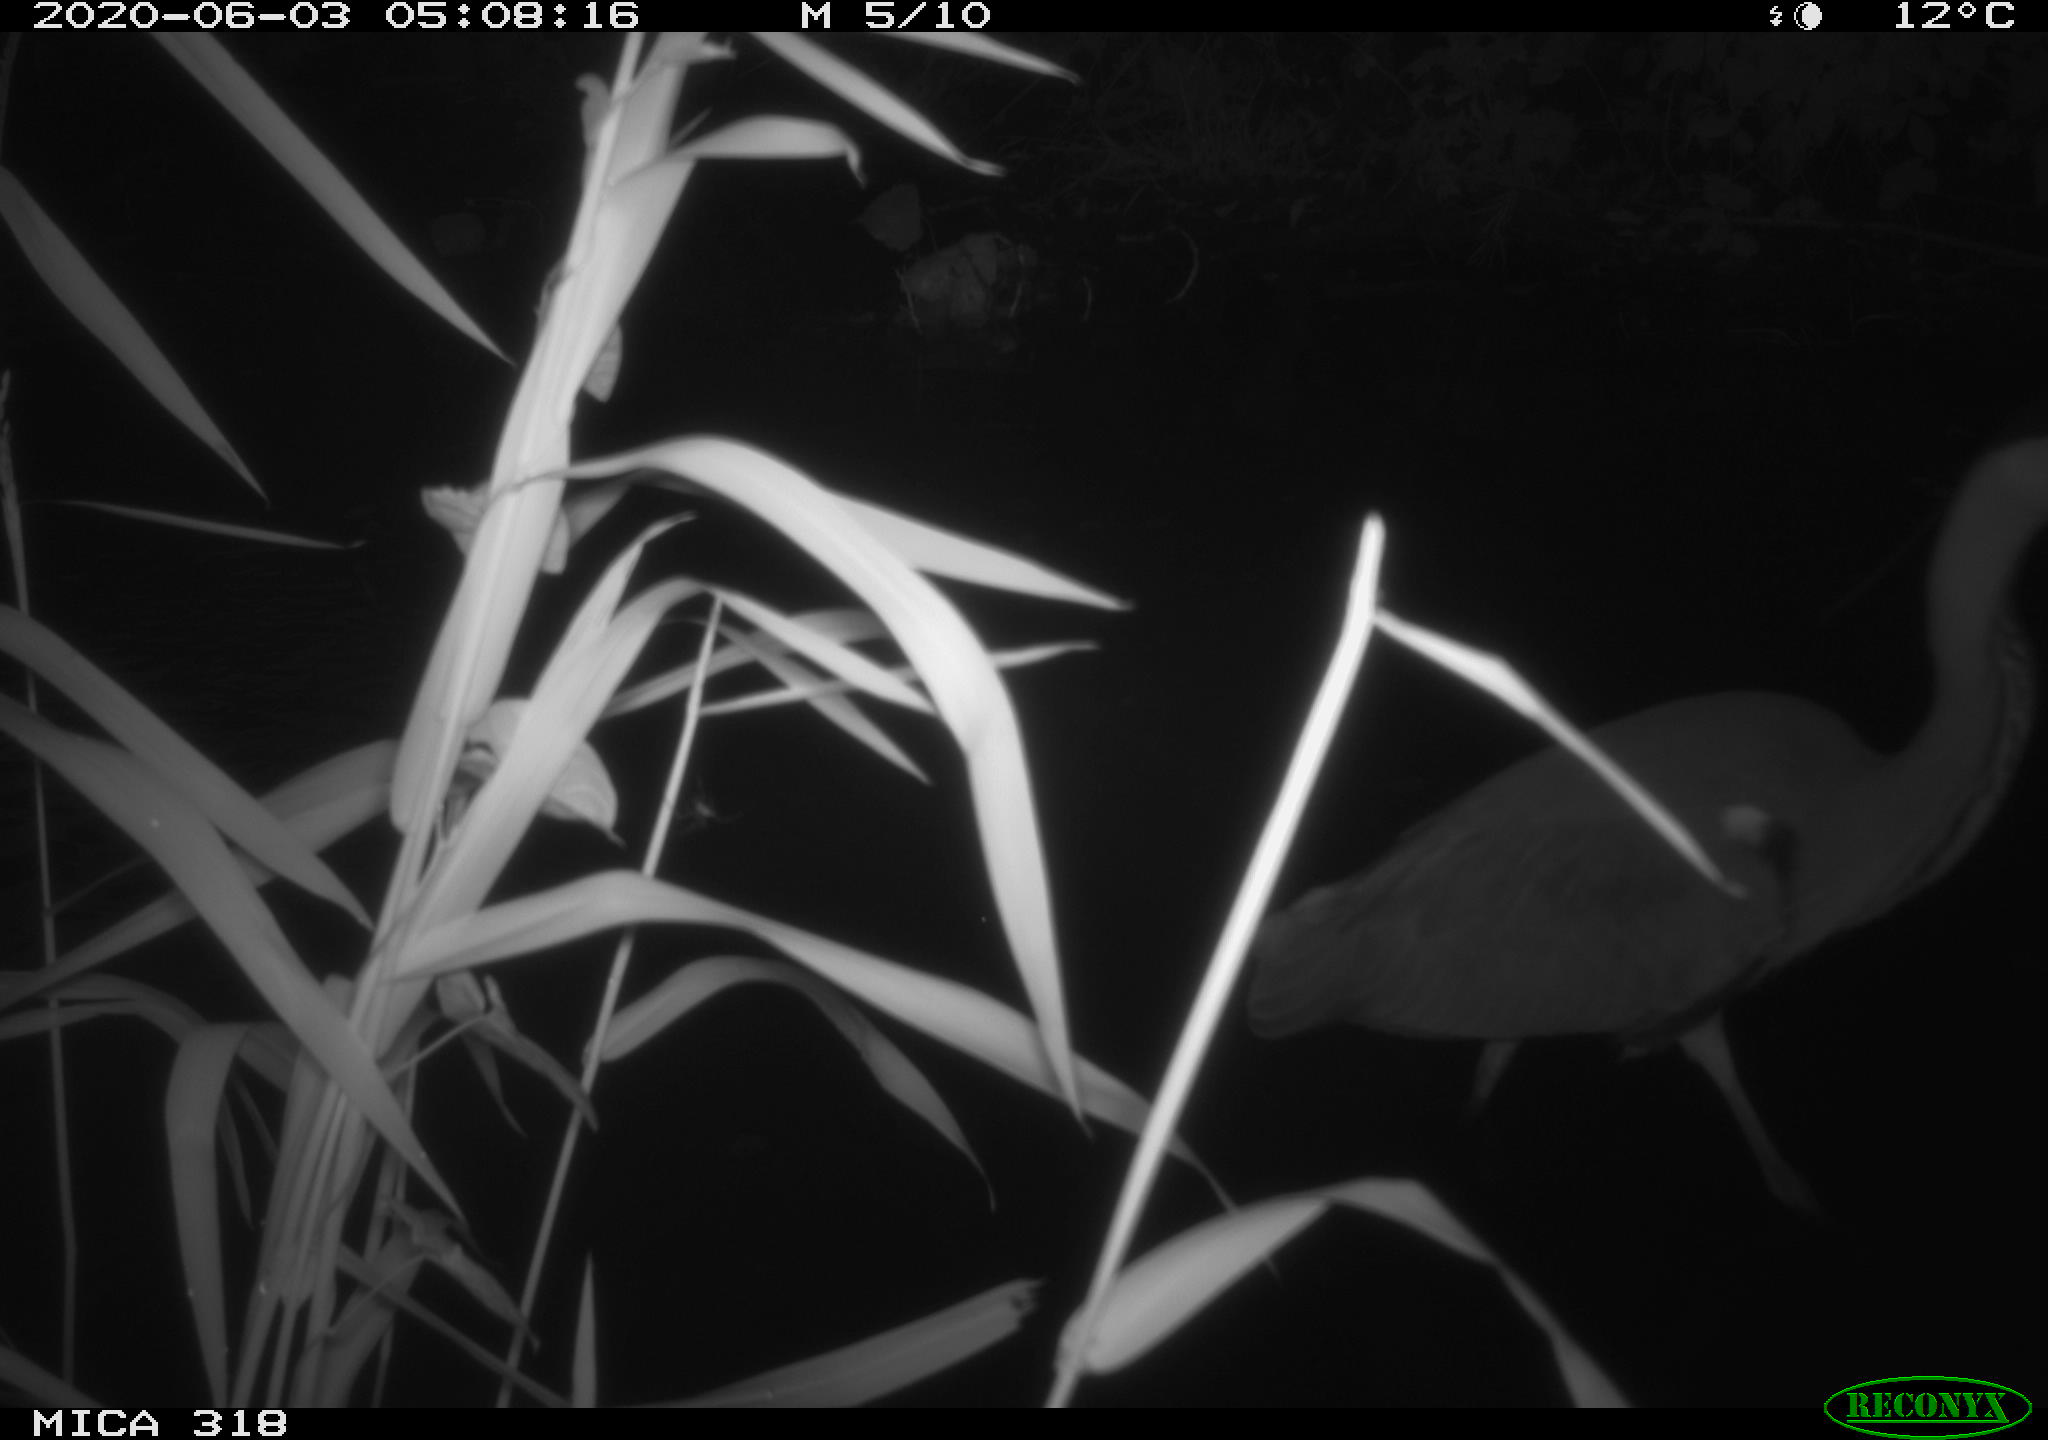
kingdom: Animalia
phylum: Chordata
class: Aves
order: Pelecaniformes
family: Ardeidae
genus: Ardea
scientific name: Ardea cinerea
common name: Grey heron
